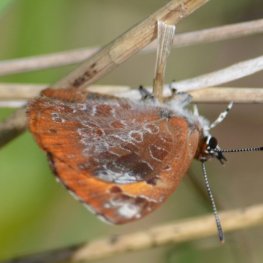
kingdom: Animalia
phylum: Arthropoda
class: Insecta
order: Lepidoptera
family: Lycaenidae
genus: Feniseca
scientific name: Feniseca tarquinius
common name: Harvester
